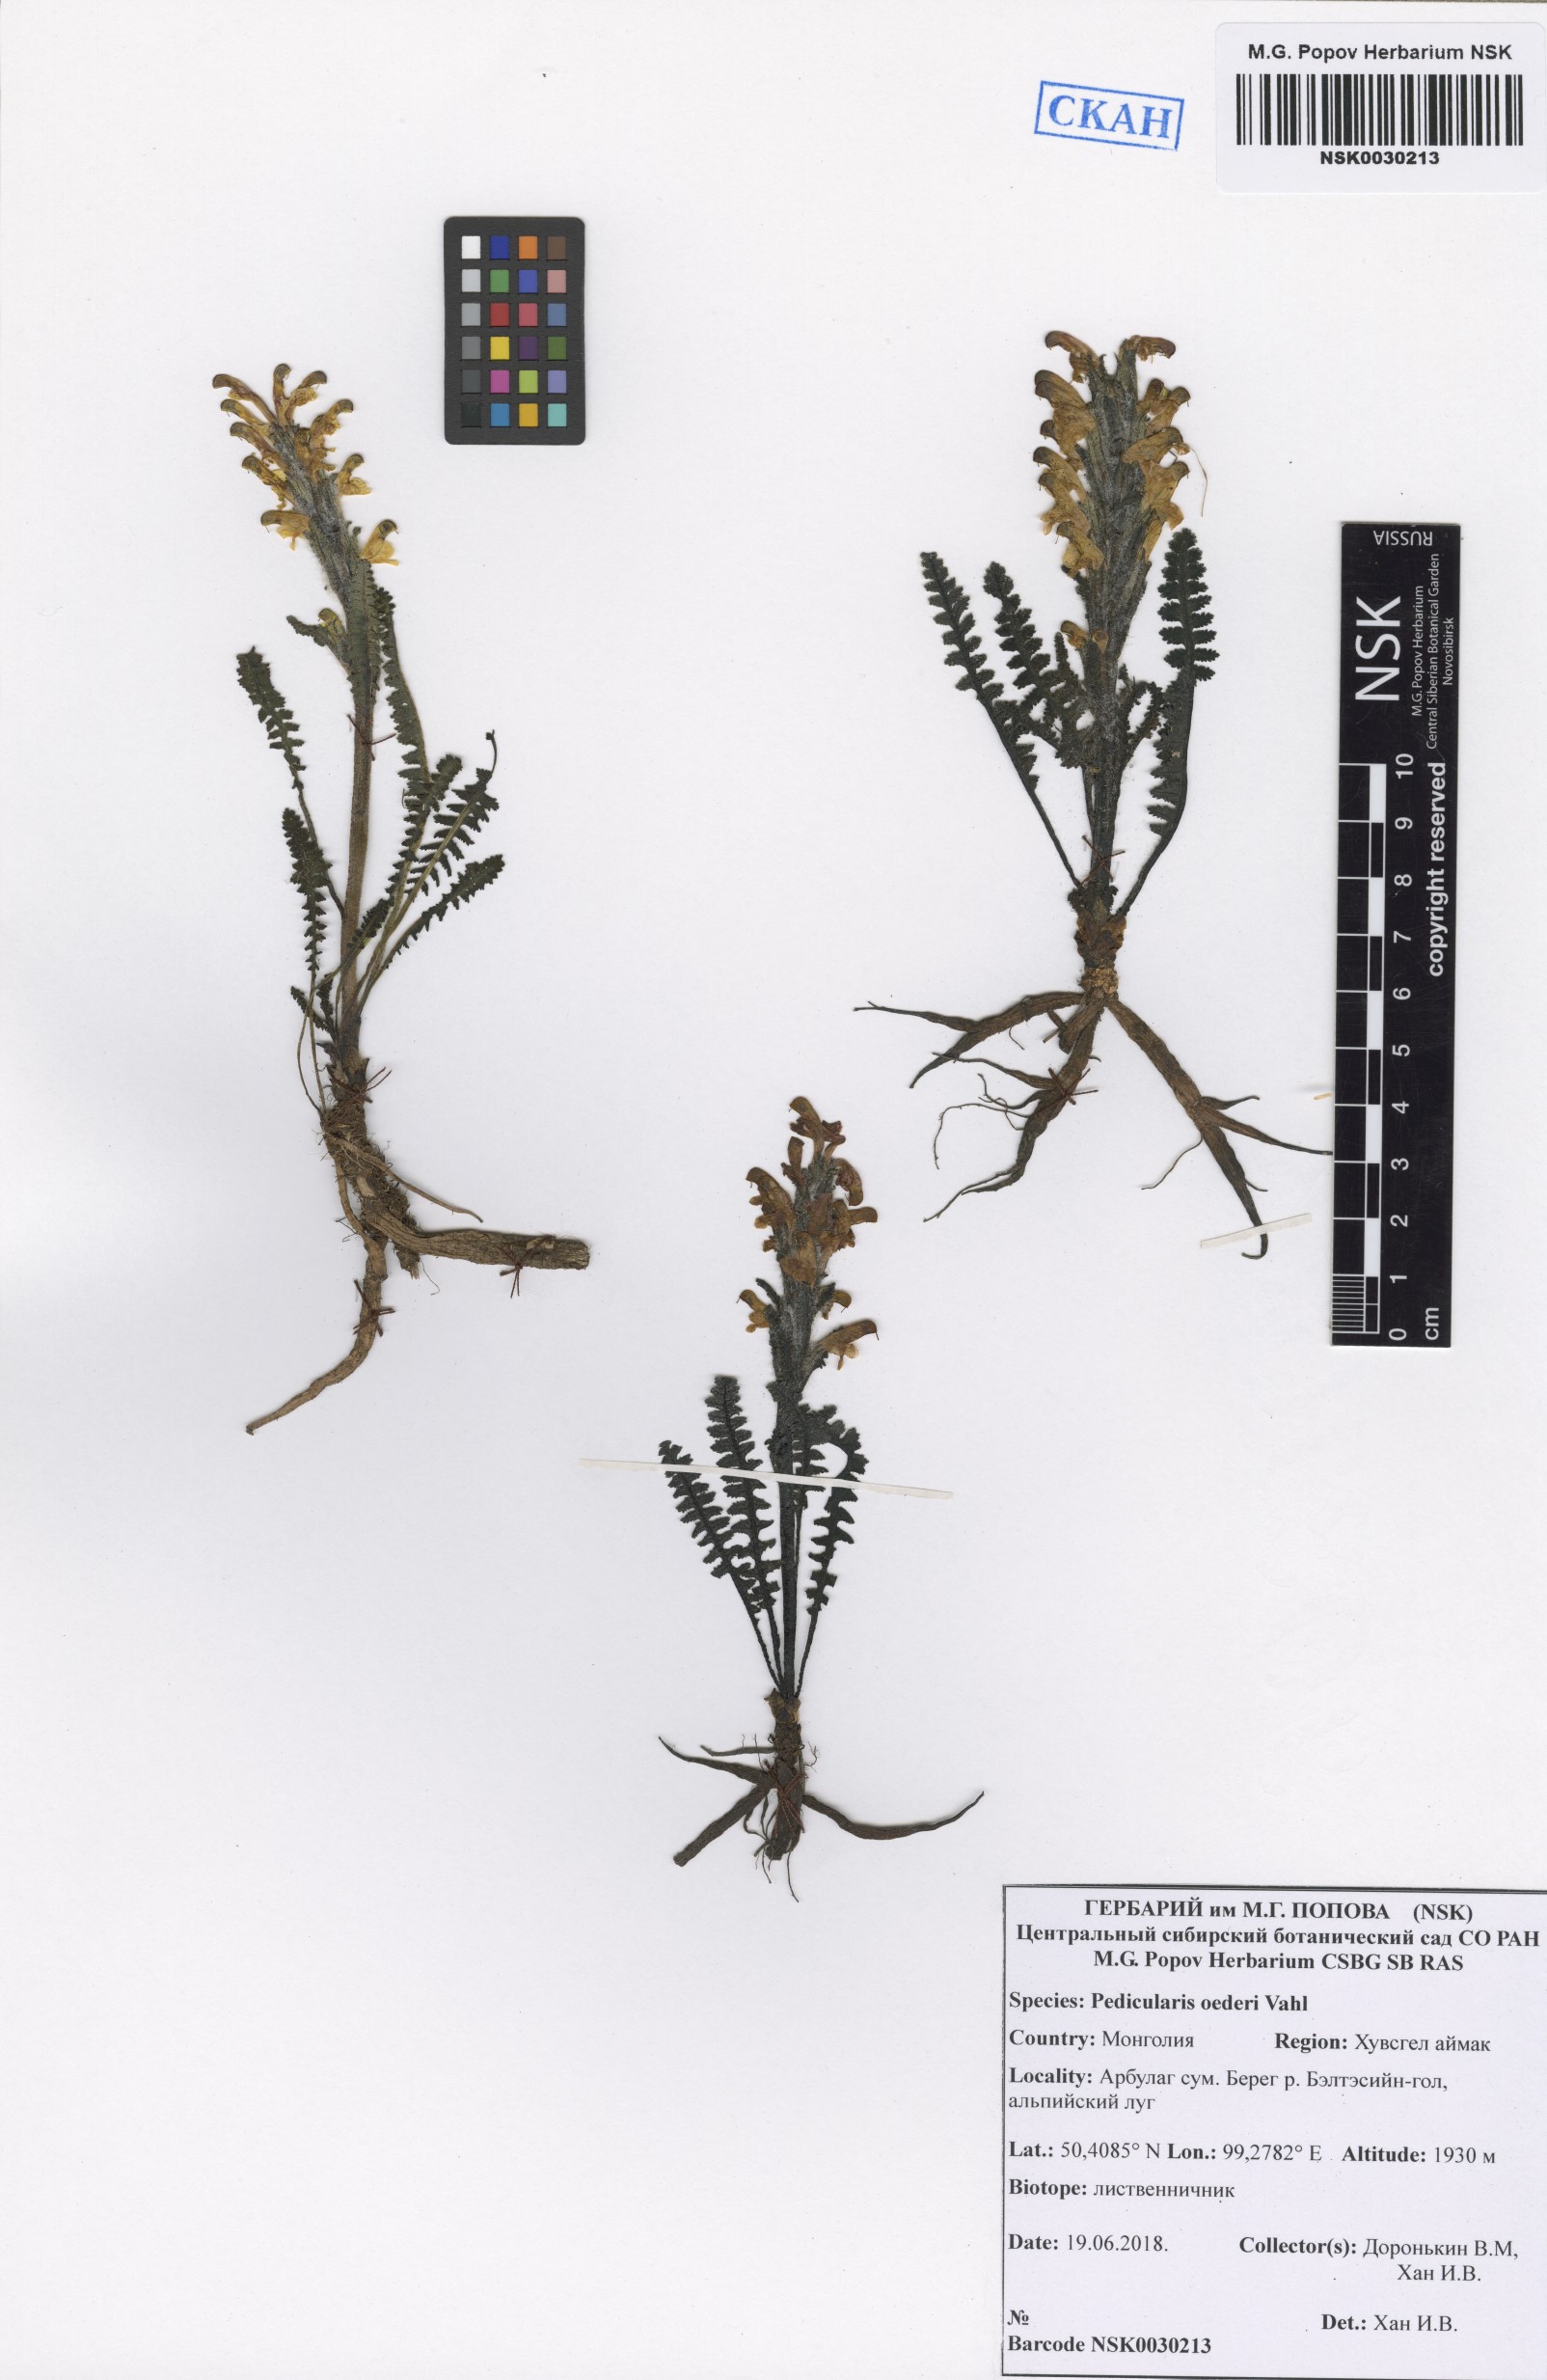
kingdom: Plantae
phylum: Tracheophyta
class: Magnoliopsida
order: Lamiales
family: Orobanchaceae
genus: Pedicularis
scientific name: Pedicularis oederi
